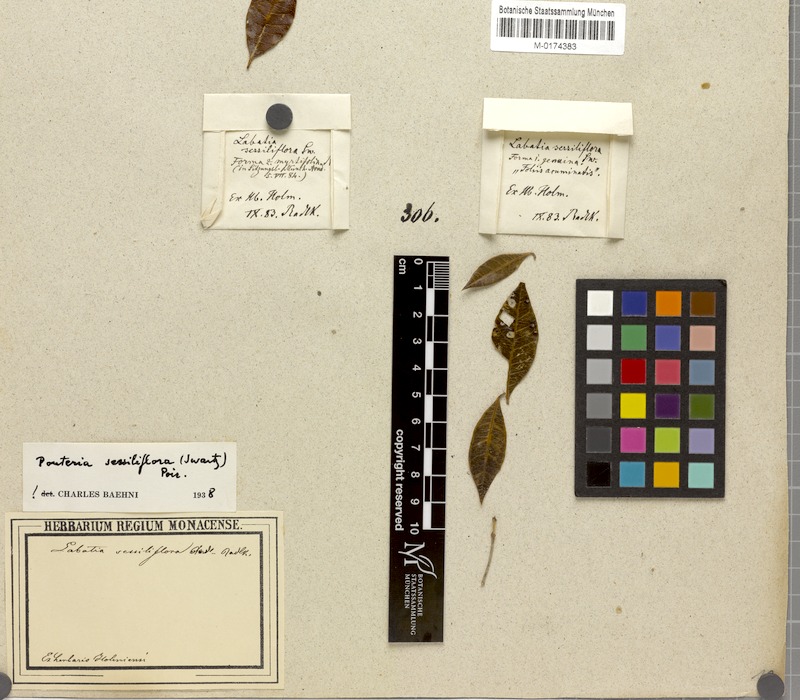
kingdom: Plantae
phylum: Tracheophyta
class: Magnoliopsida
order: Ericales
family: Sapotaceae
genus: Pouteria
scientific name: Pouteria sessiliflora
